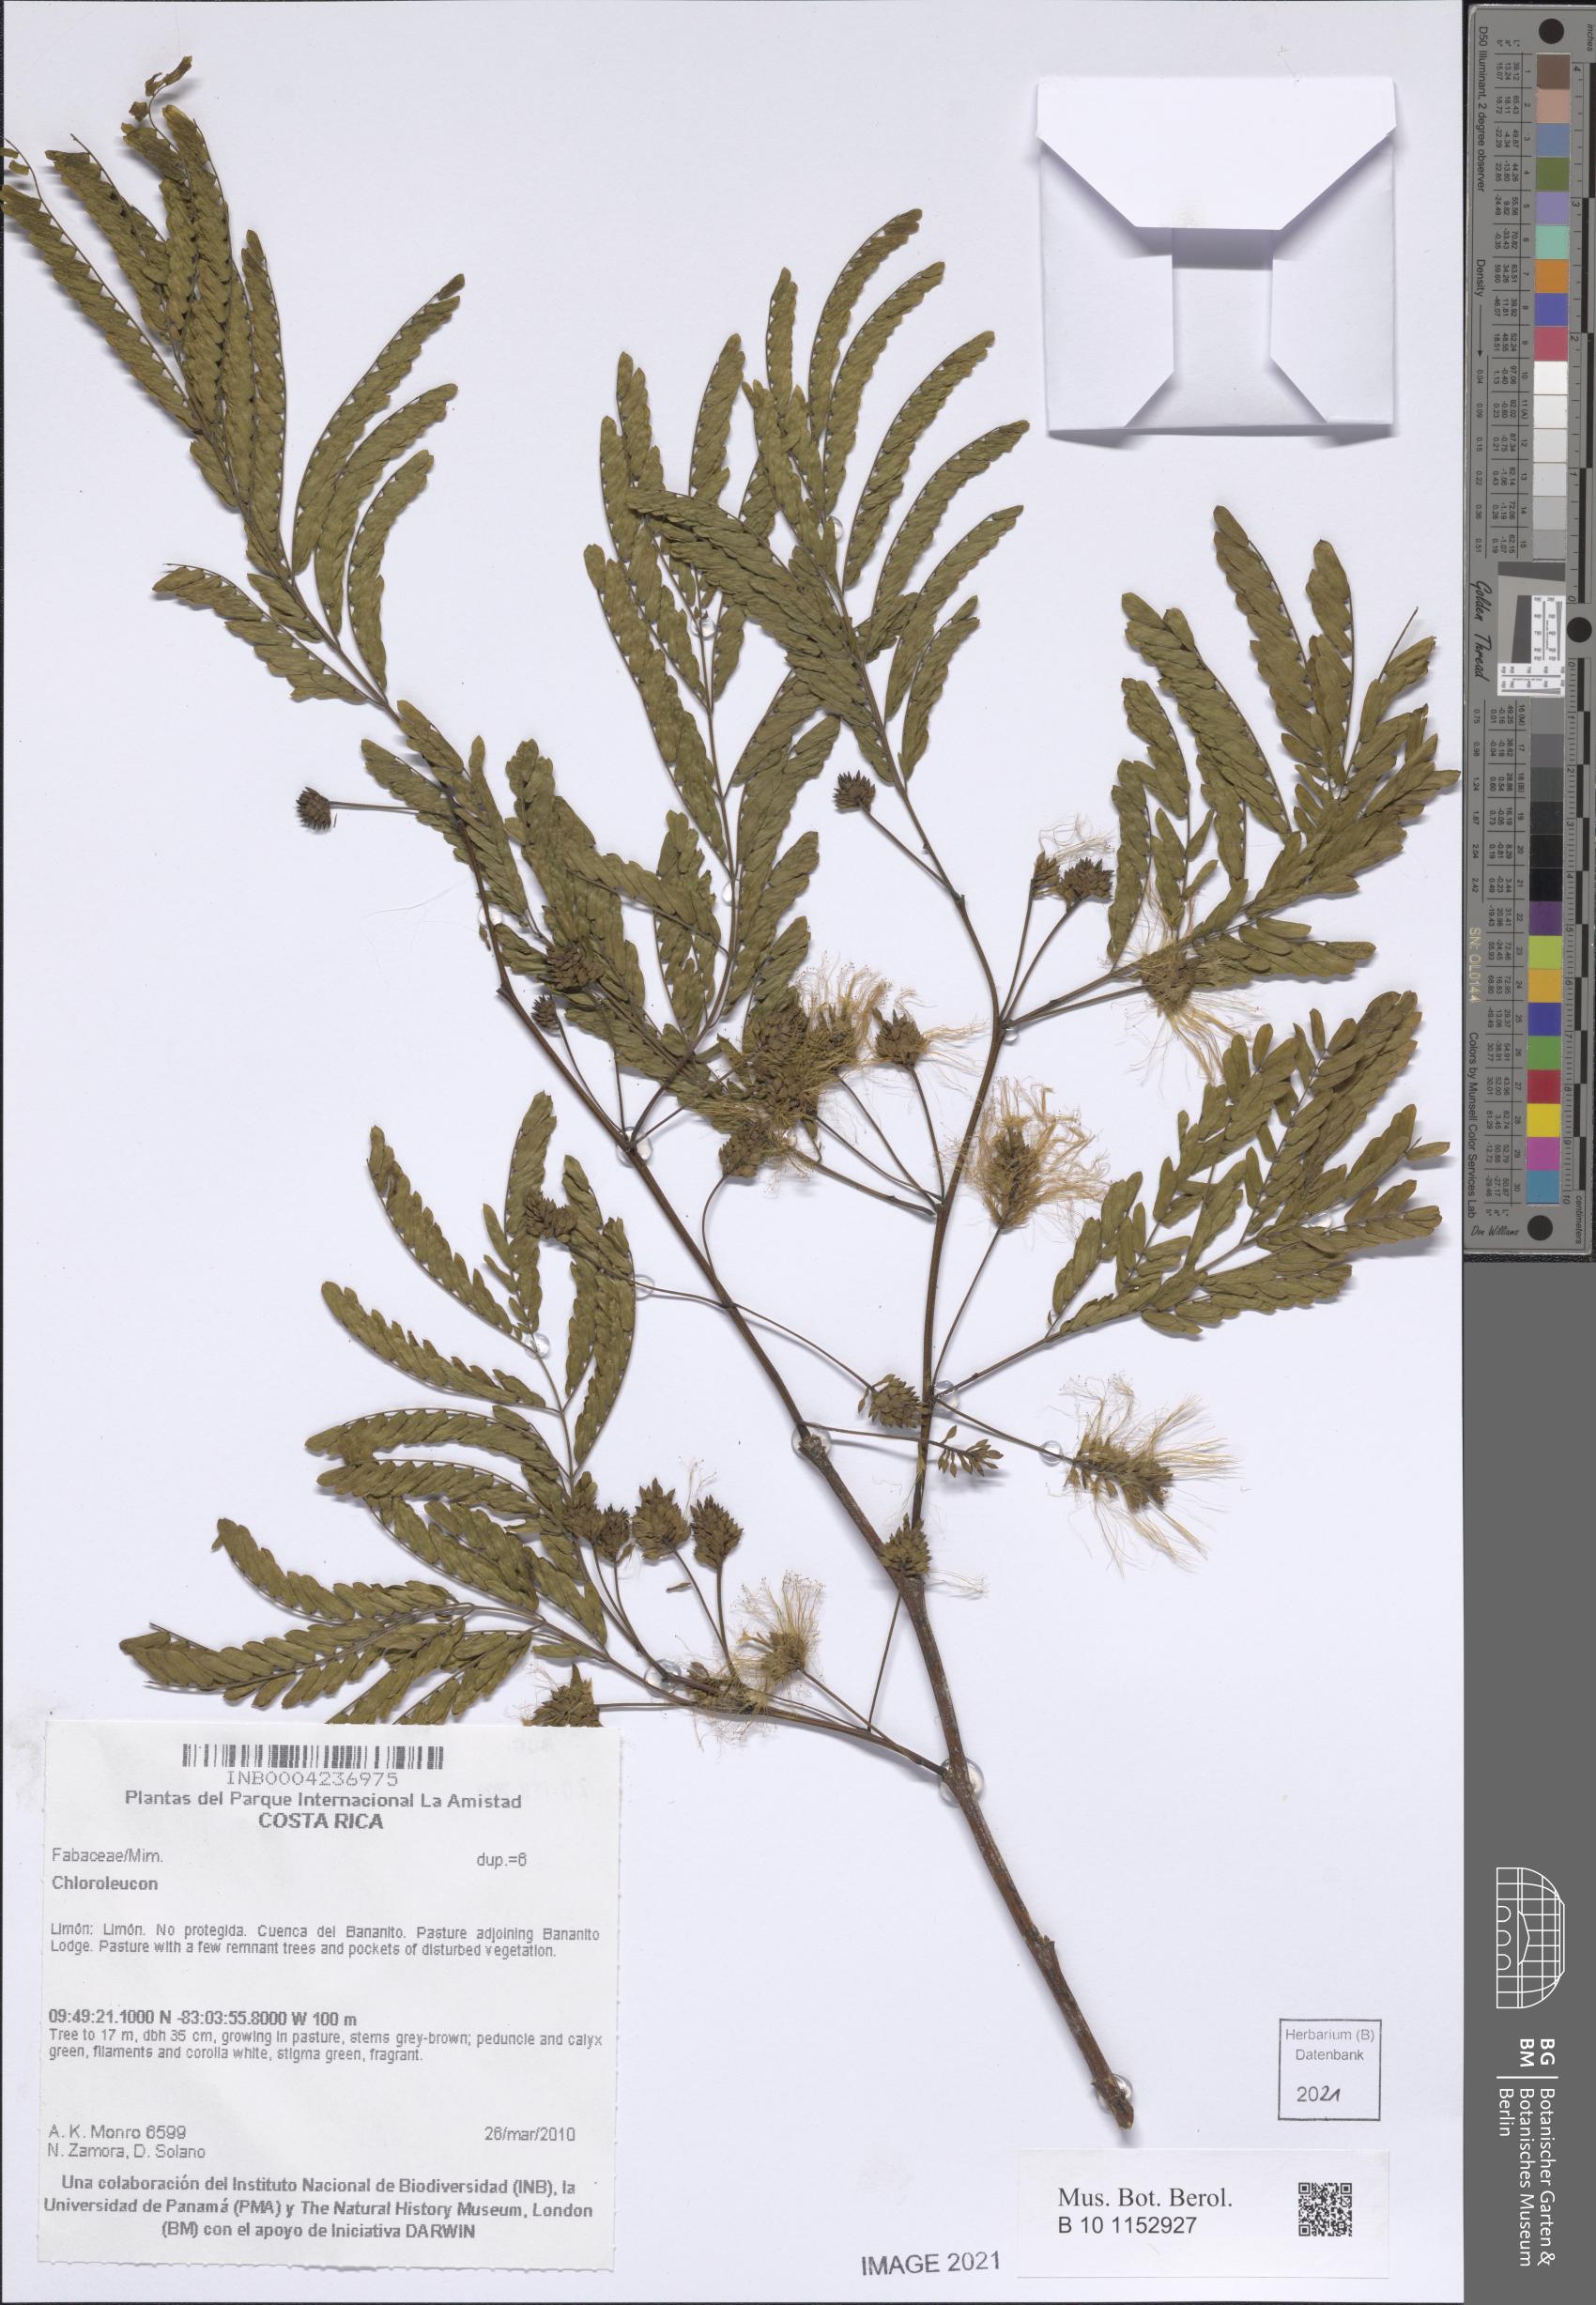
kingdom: Plantae
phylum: Tracheophyta
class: Magnoliopsida
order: Fabales
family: Fabaceae
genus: Chloroleucon
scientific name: Chloroleucon
